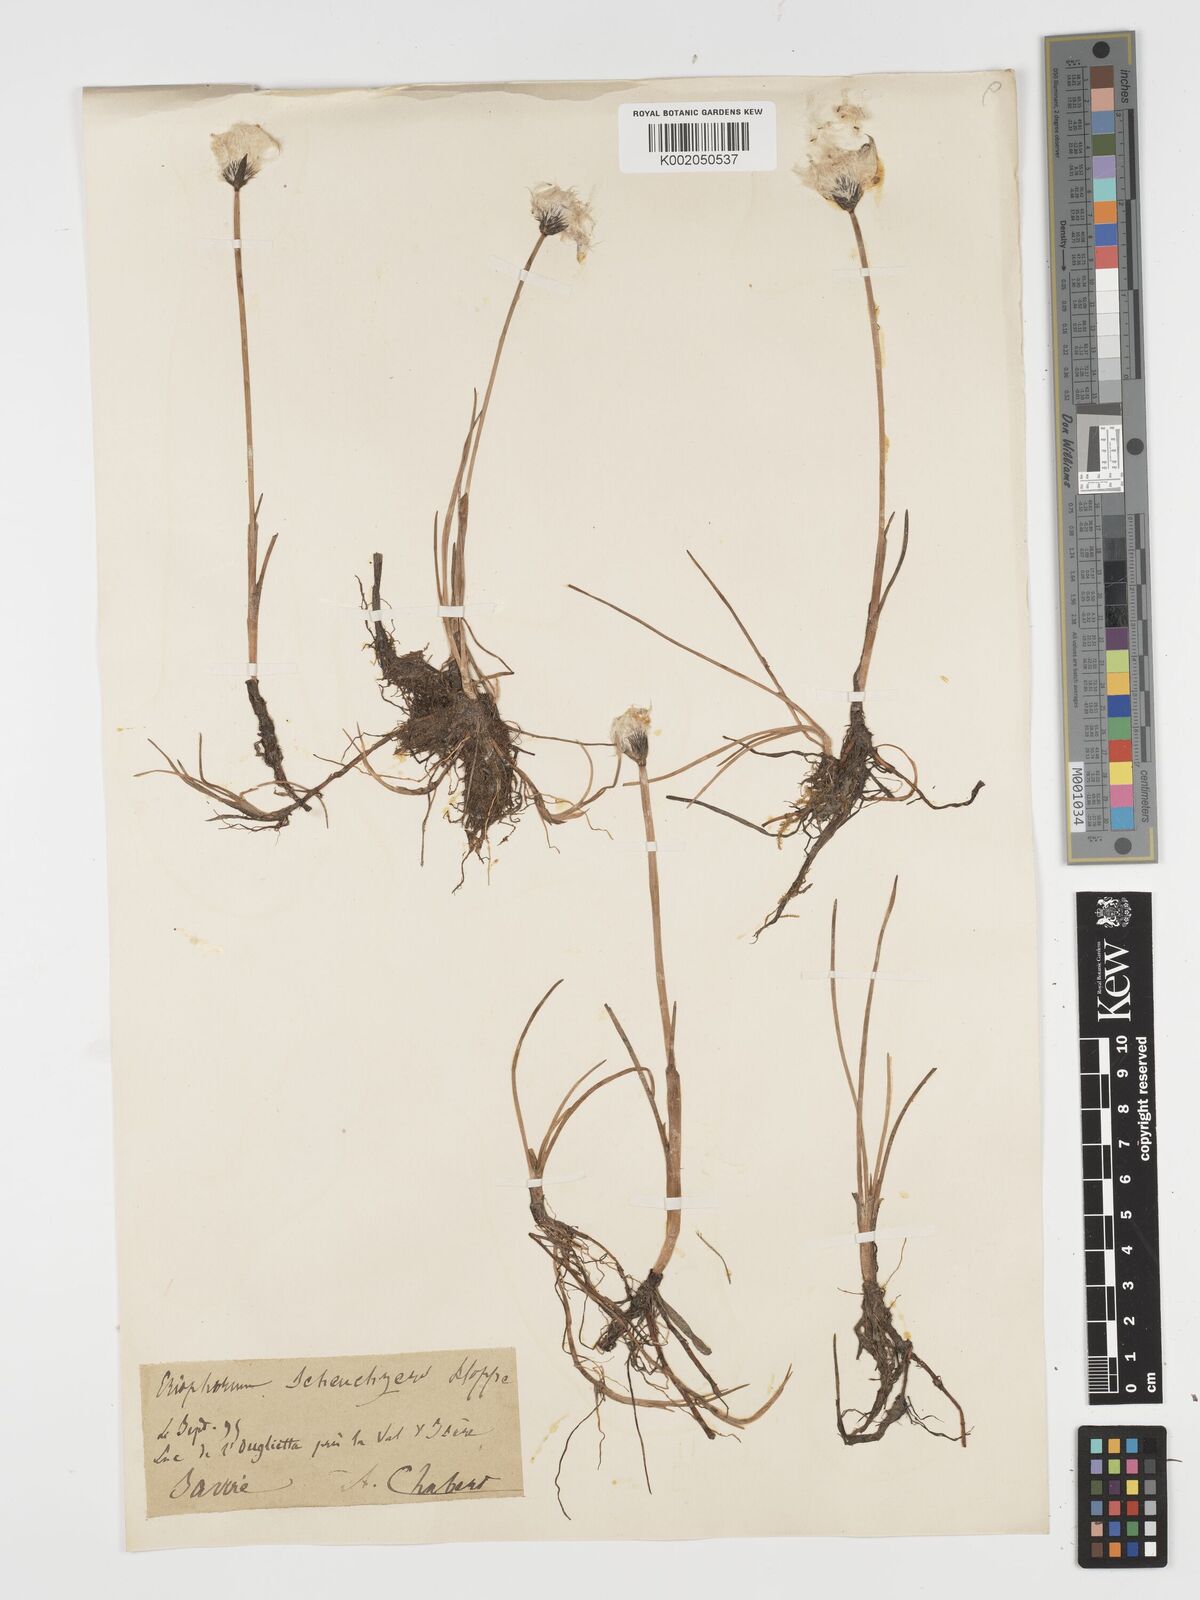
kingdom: Plantae
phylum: Tracheophyta
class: Liliopsida
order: Poales
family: Cyperaceae
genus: Eriophorum
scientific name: Eriophorum scheuchzeri
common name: Scheuchzer's cottongrass
